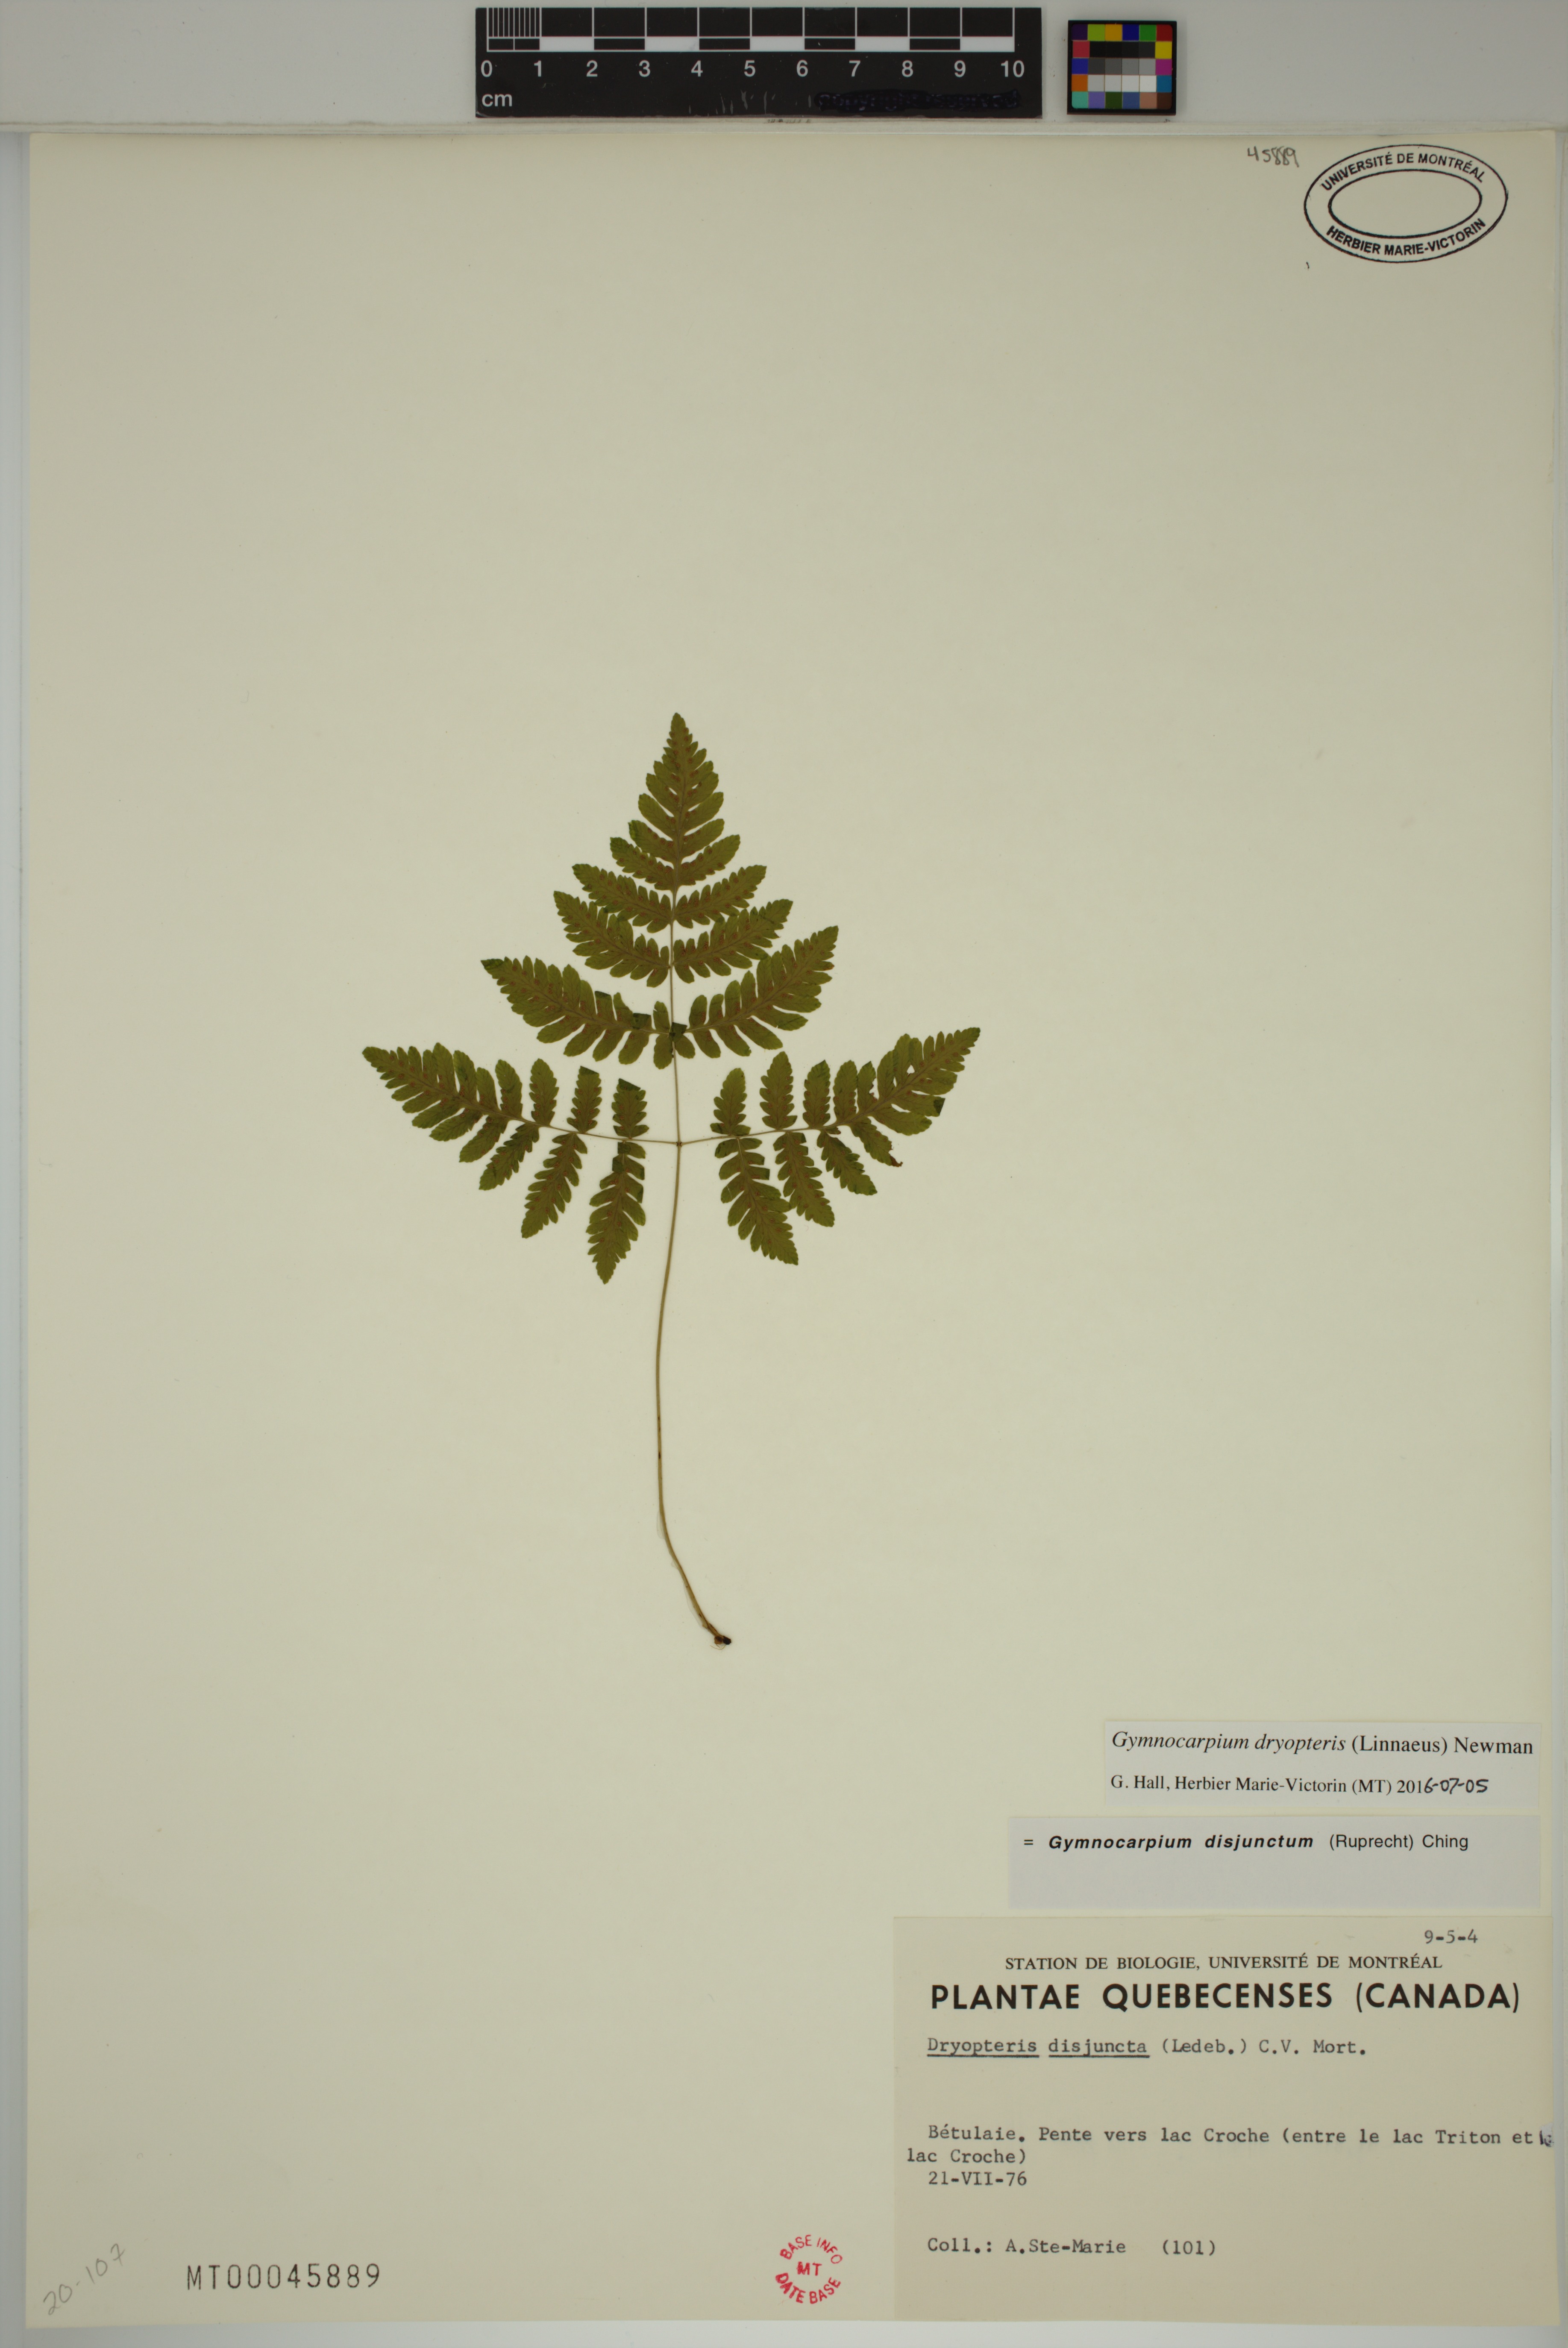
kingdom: Plantae
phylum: Tracheophyta
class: Polypodiopsida
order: Polypodiales
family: Cystopteridaceae
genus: Gymnocarpium
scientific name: Gymnocarpium dryopteris
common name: Oak fern
